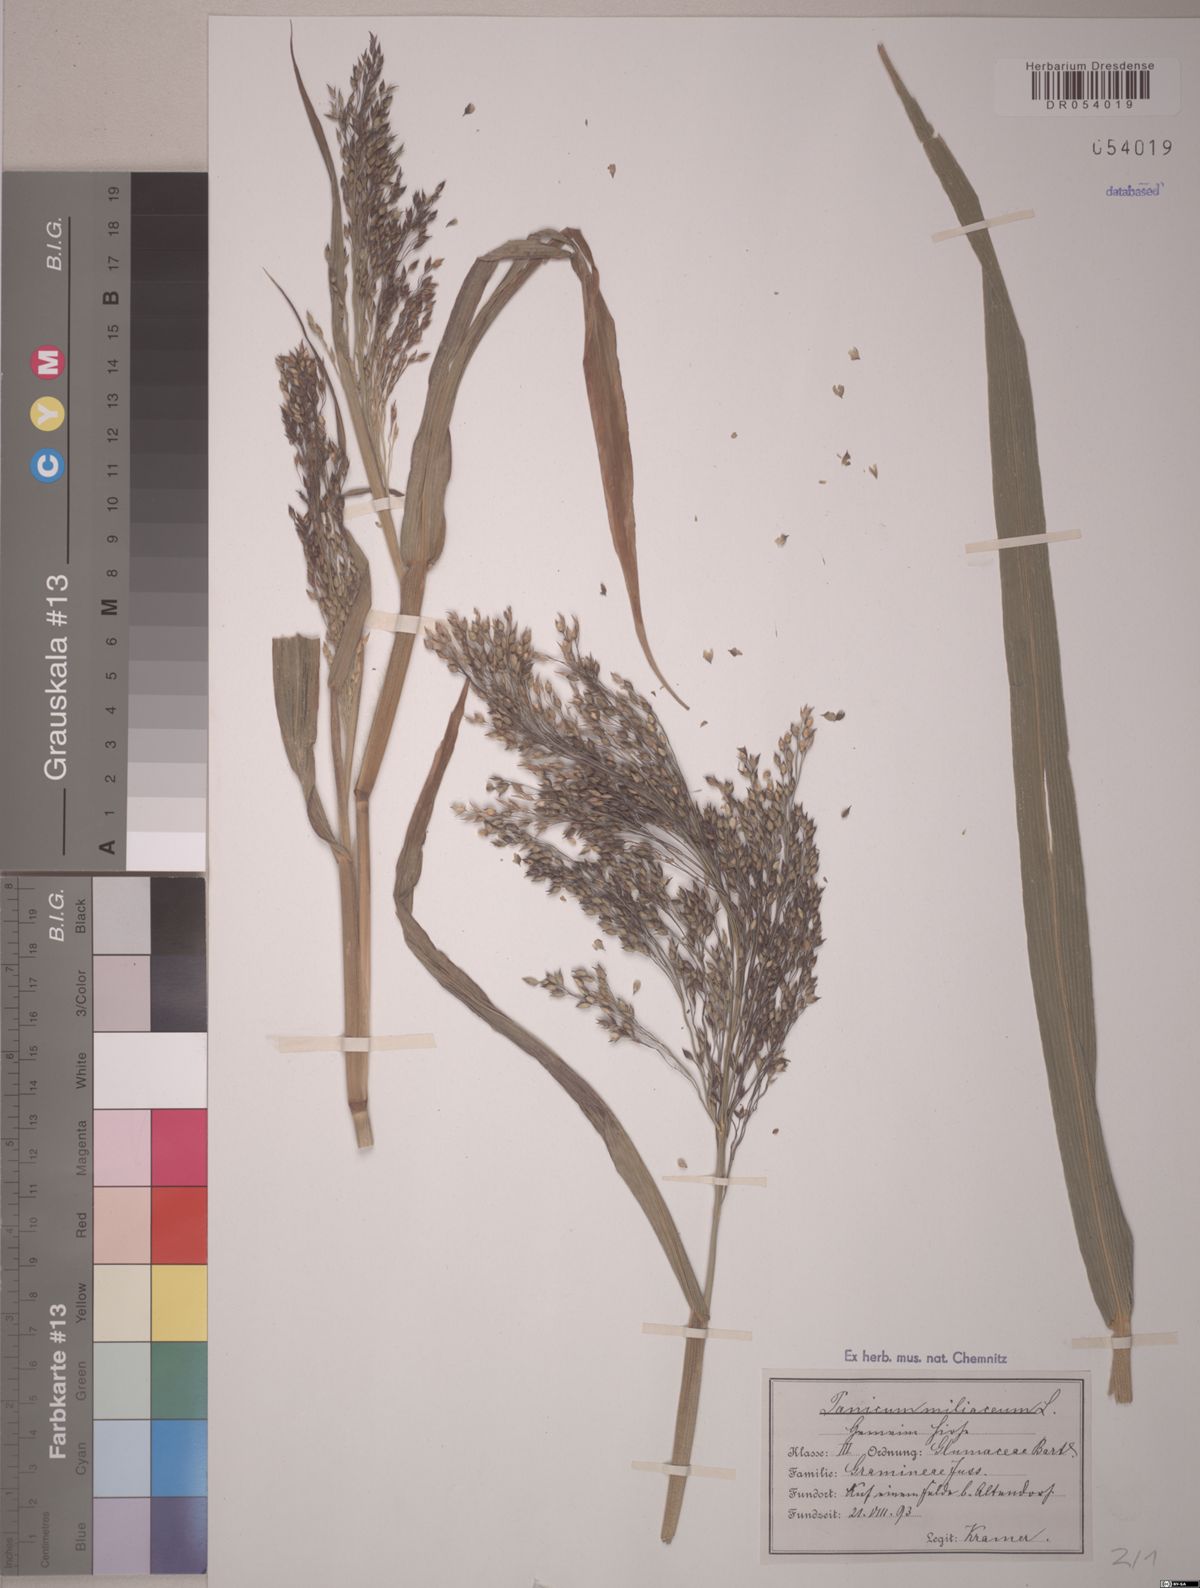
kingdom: Plantae
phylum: Tracheophyta
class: Liliopsida
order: Poales
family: Poaceae
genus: Panicum
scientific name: Panicum miliaceum
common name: Common millet
